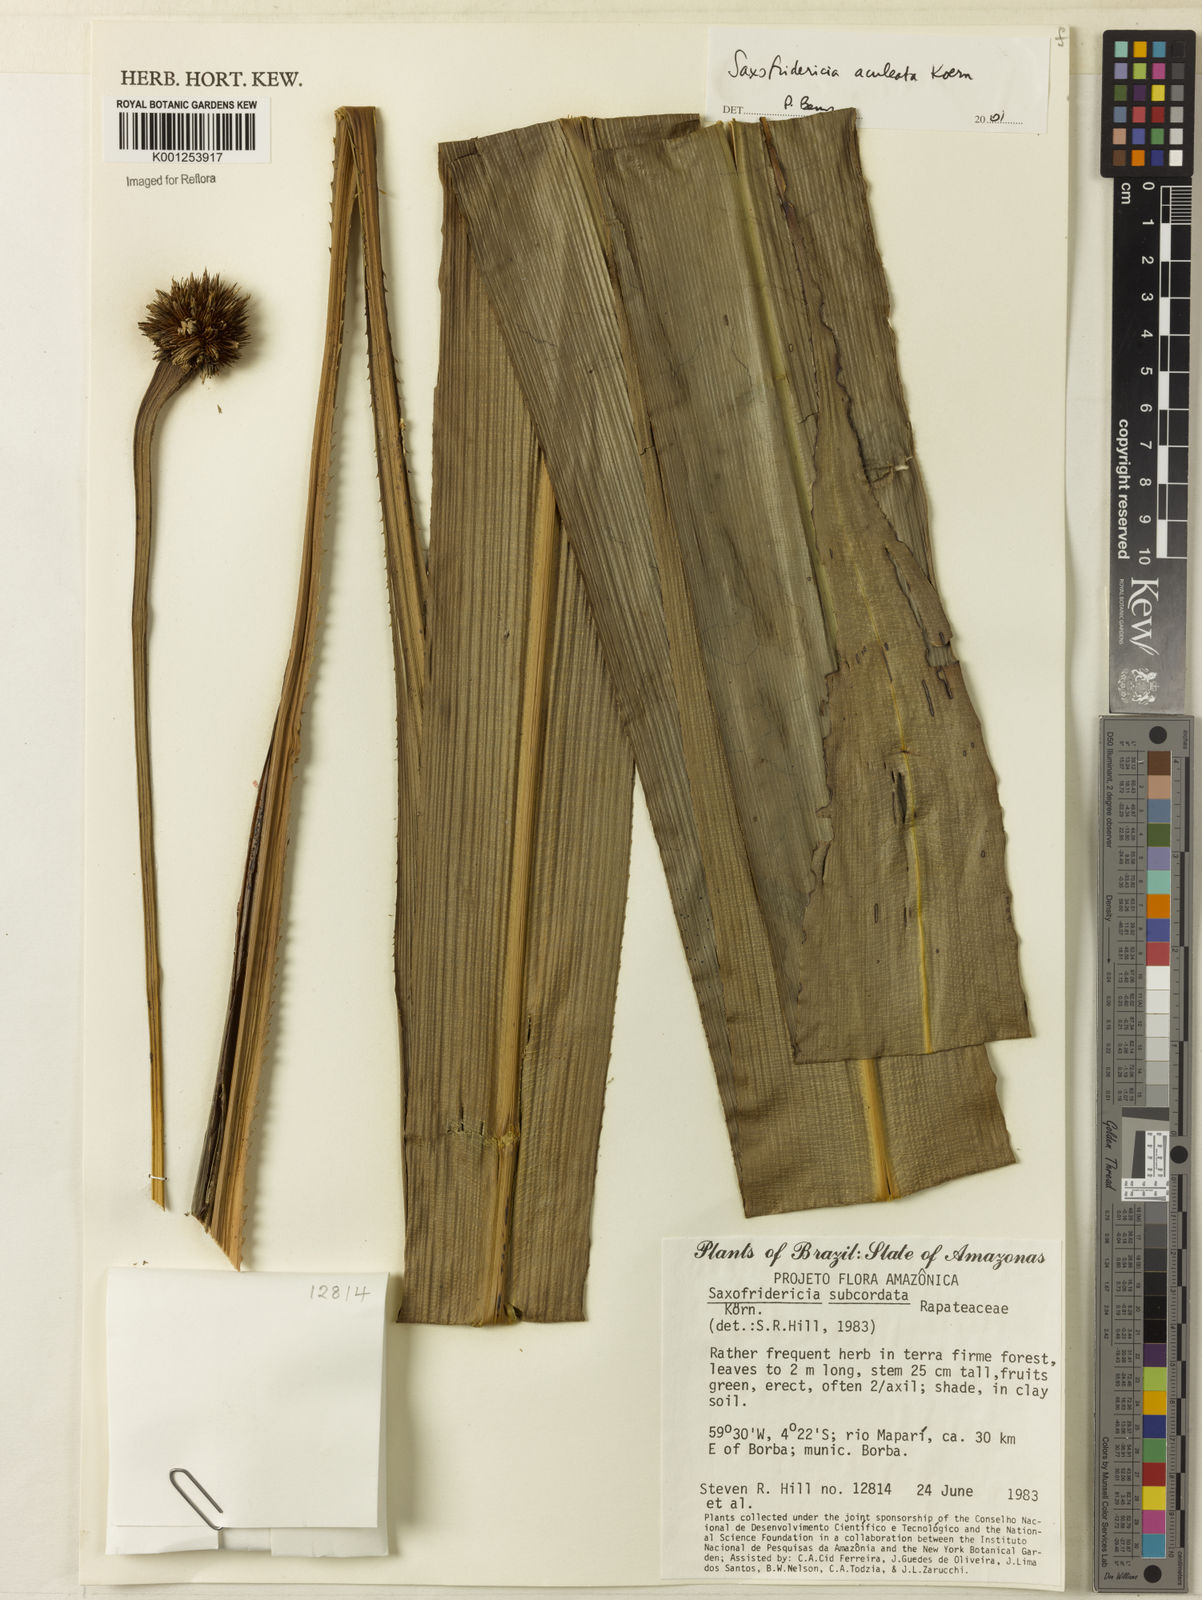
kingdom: Plantae
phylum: Tracheophyta
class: Liliopsida
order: Poales
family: Rapateaceae
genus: Saxofridericia
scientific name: Saxofridericia aculeata
